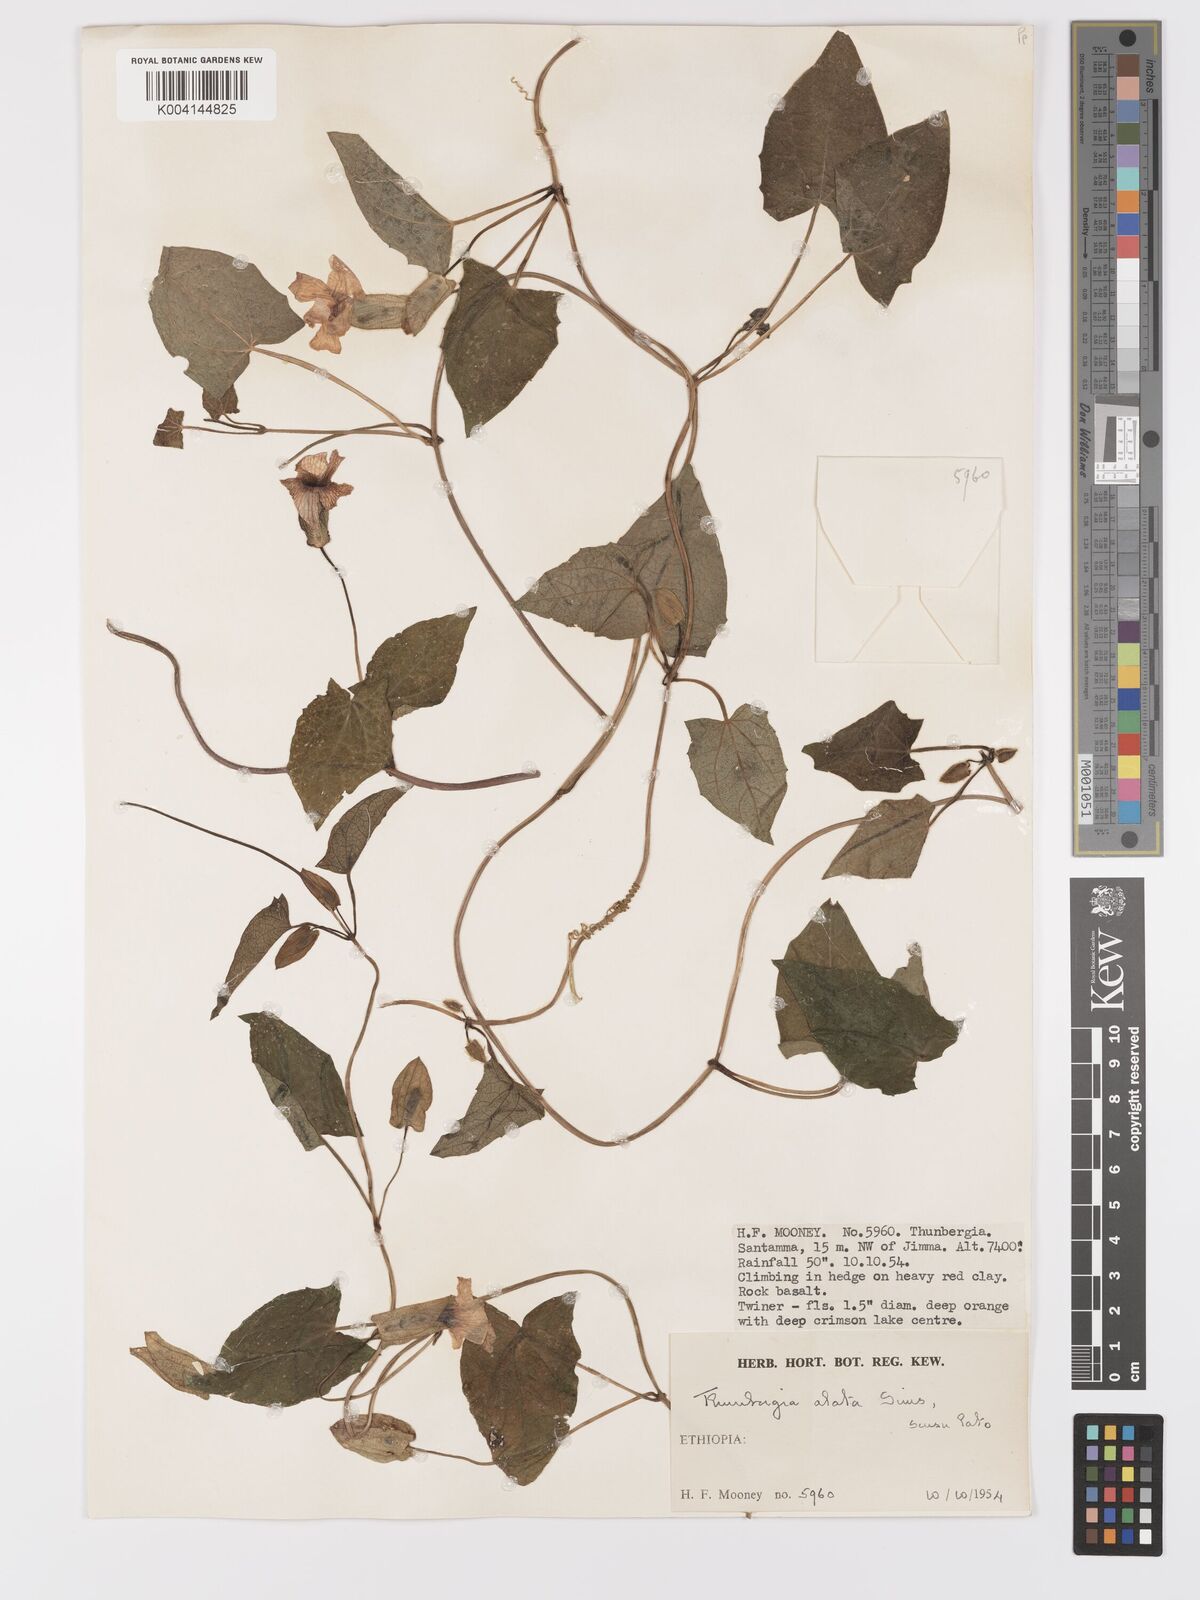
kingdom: Plantae
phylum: Tracheophyta
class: Magnoliopsida
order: Lamiales
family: Acanthaceae
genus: Thunbergia
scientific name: Thunbergia alata
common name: Blackeyed susan vine
